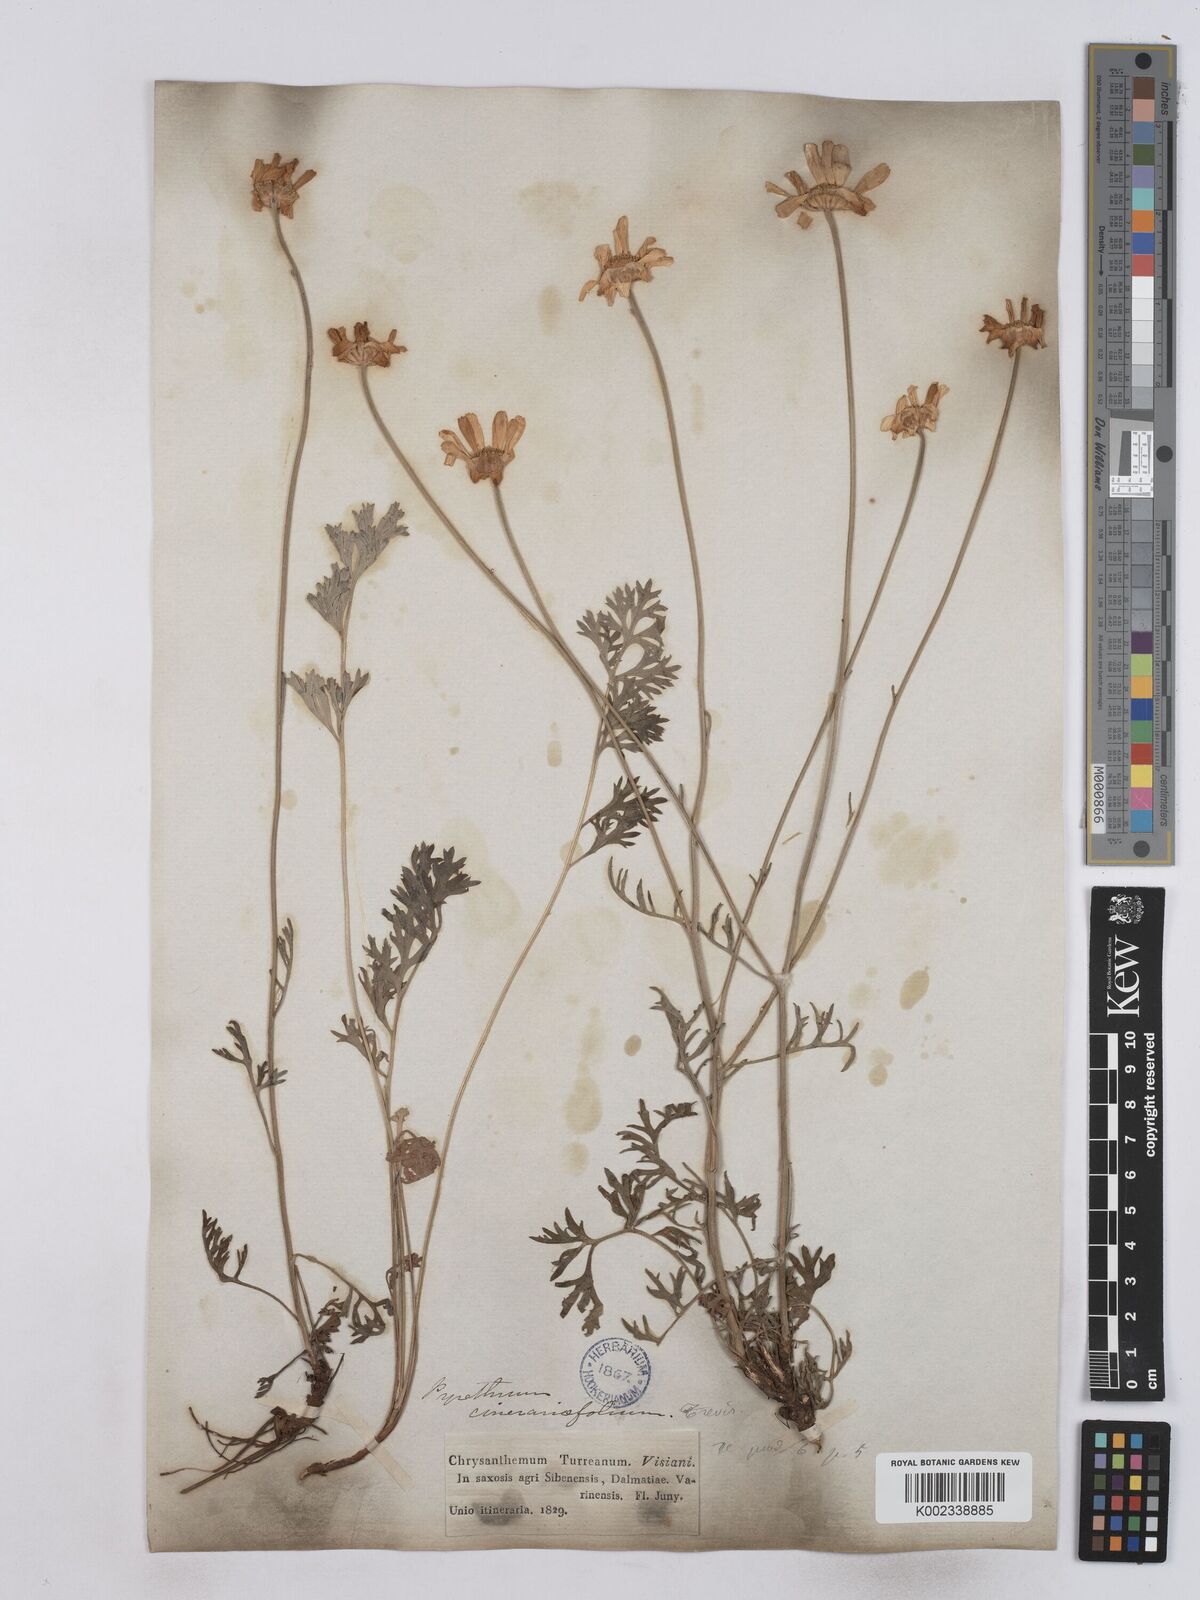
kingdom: Plantae
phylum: Tracheophyta
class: Magnoliopsida
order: Asterales
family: Asteraceae
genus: Tanacetum
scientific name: Tanacetum cinerariifolium
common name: Dalmatian pyrethrum
